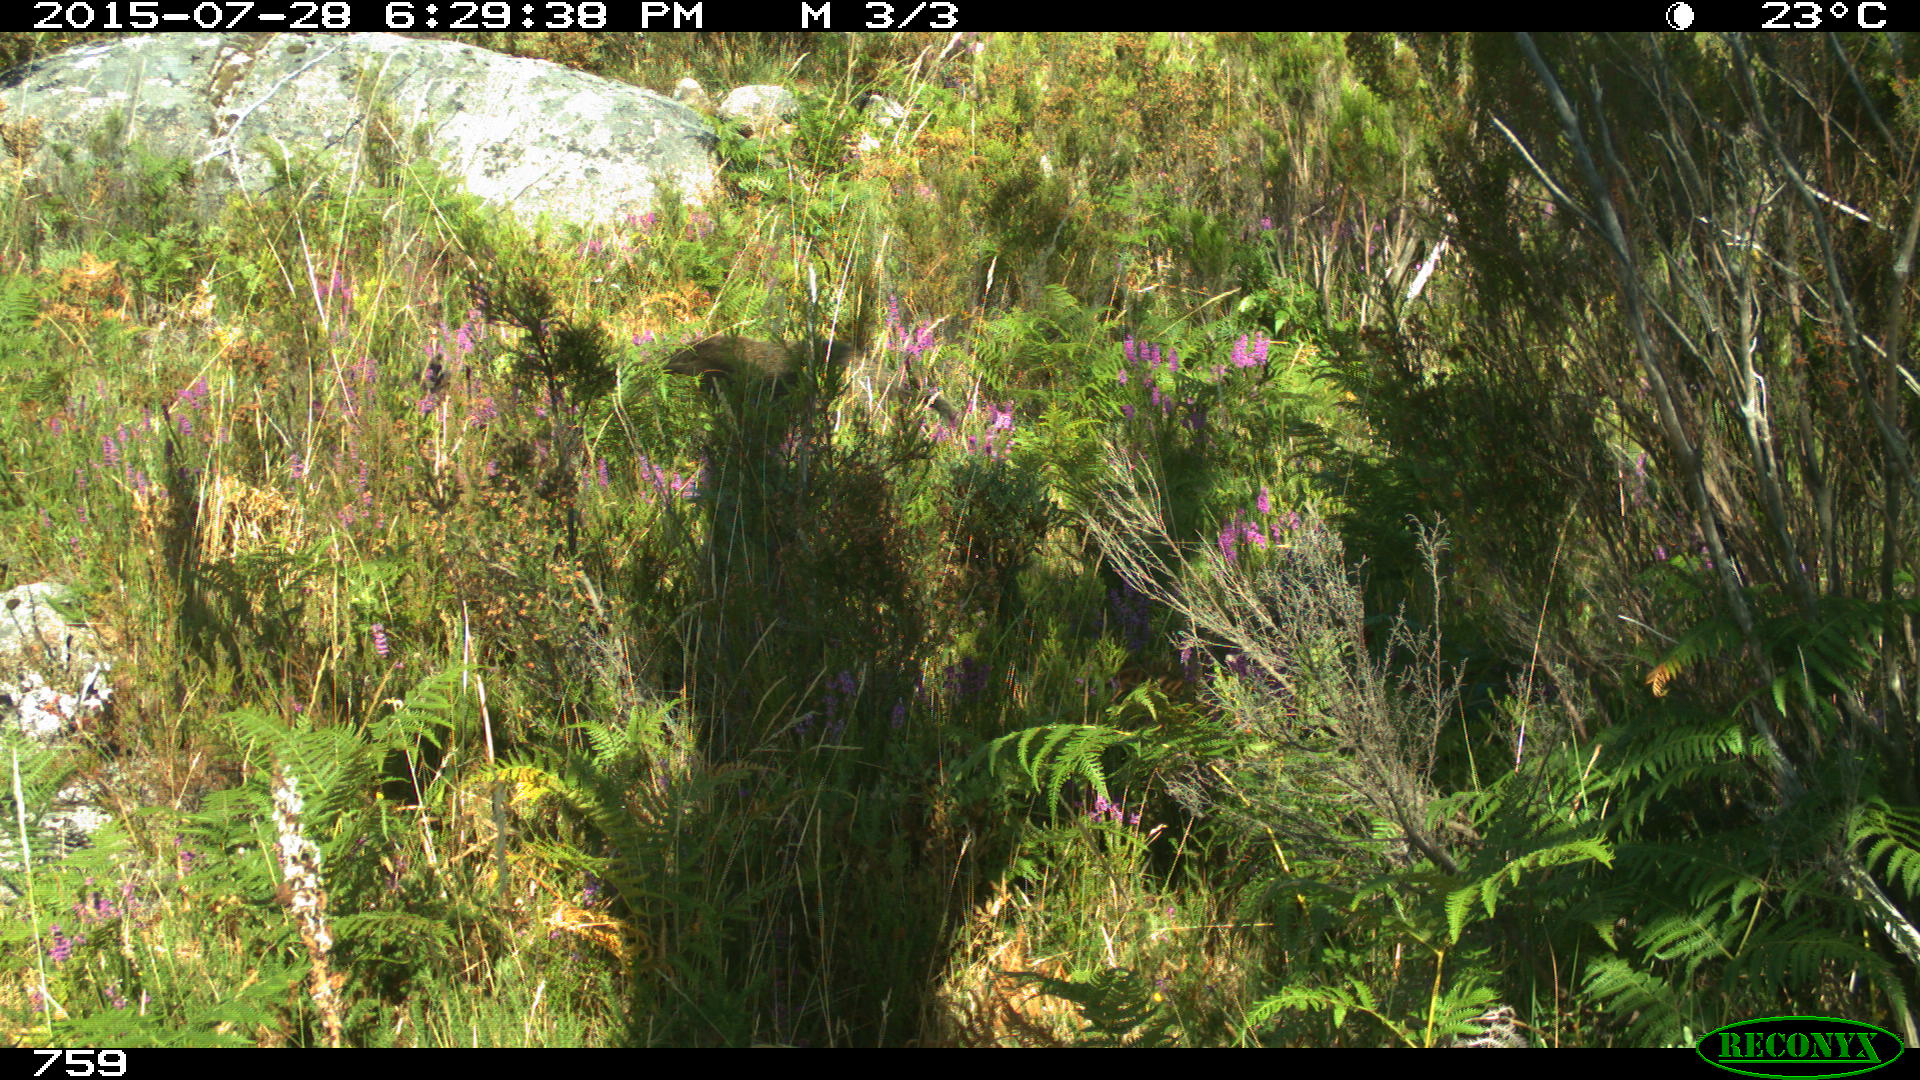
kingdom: Animalia
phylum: Chordata
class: Mammalia
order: Artiodactyla
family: Suidae
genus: Sus
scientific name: Sus scrofa
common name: Wild boar
